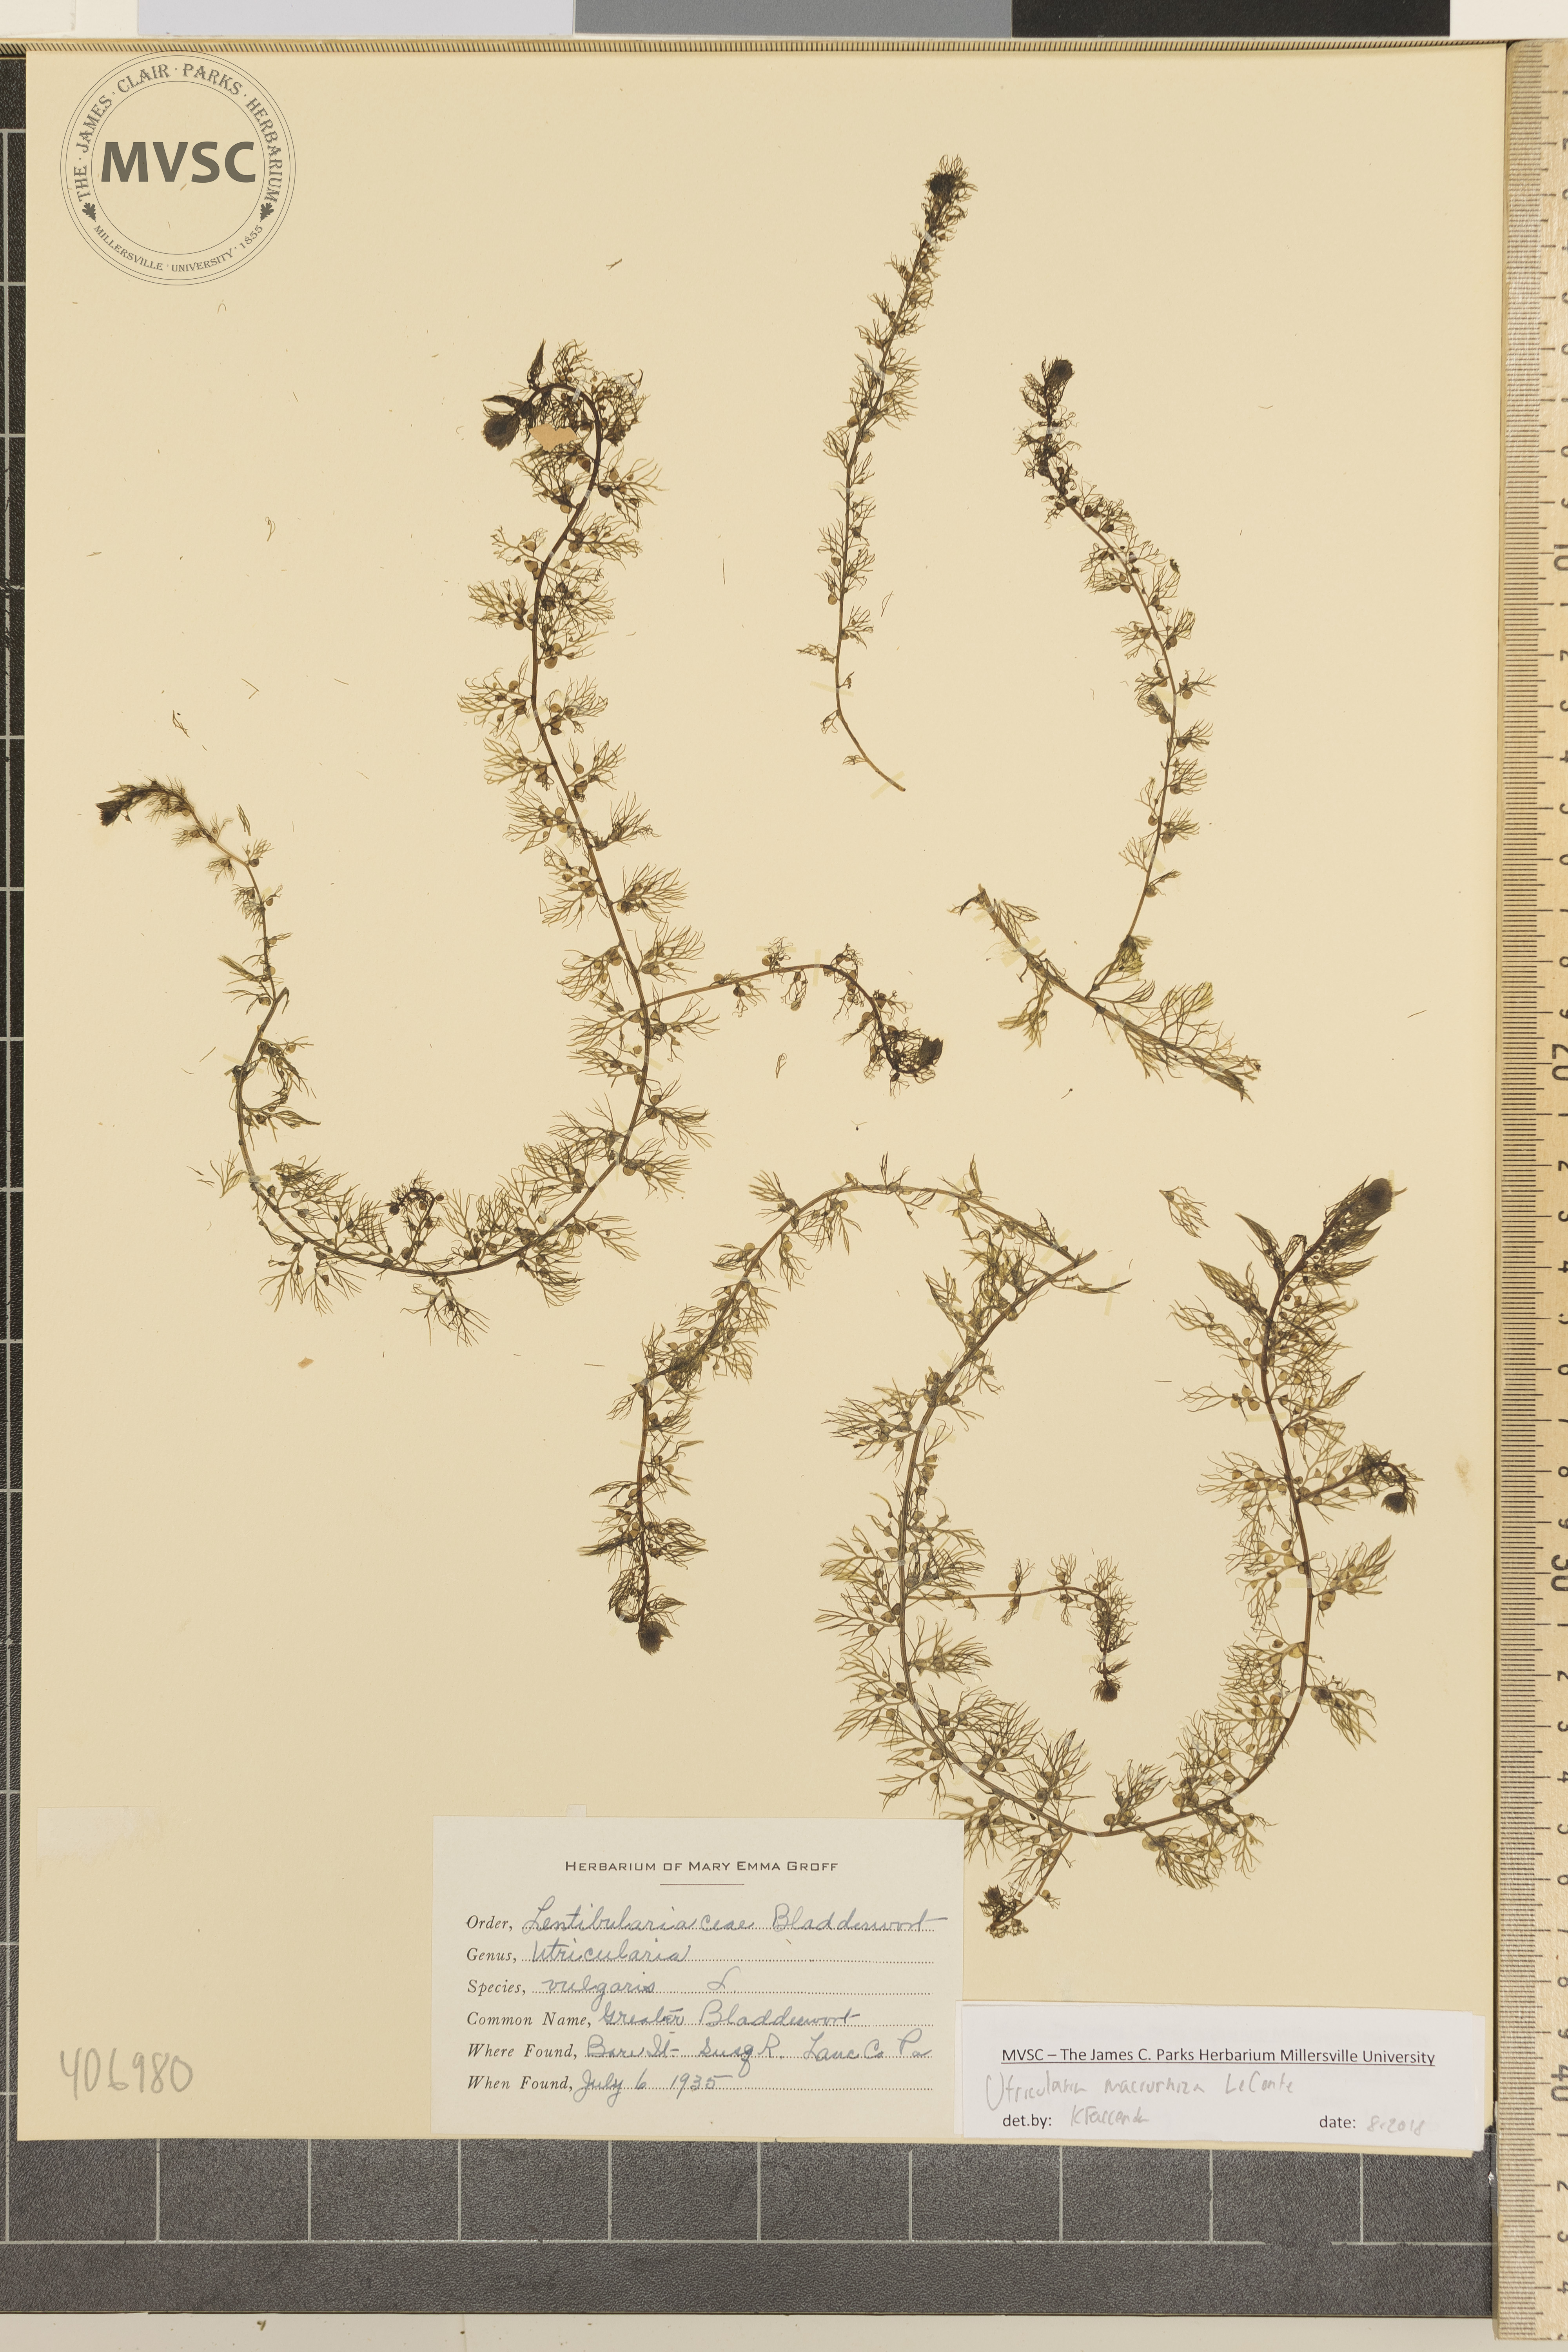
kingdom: Plantae
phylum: Tracheophyta
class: Magnoliopsida
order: Lamiales
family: Lentibulariaceae
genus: Utricularia
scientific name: Utricularia macrorhiza
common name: Greater Bladderwort
